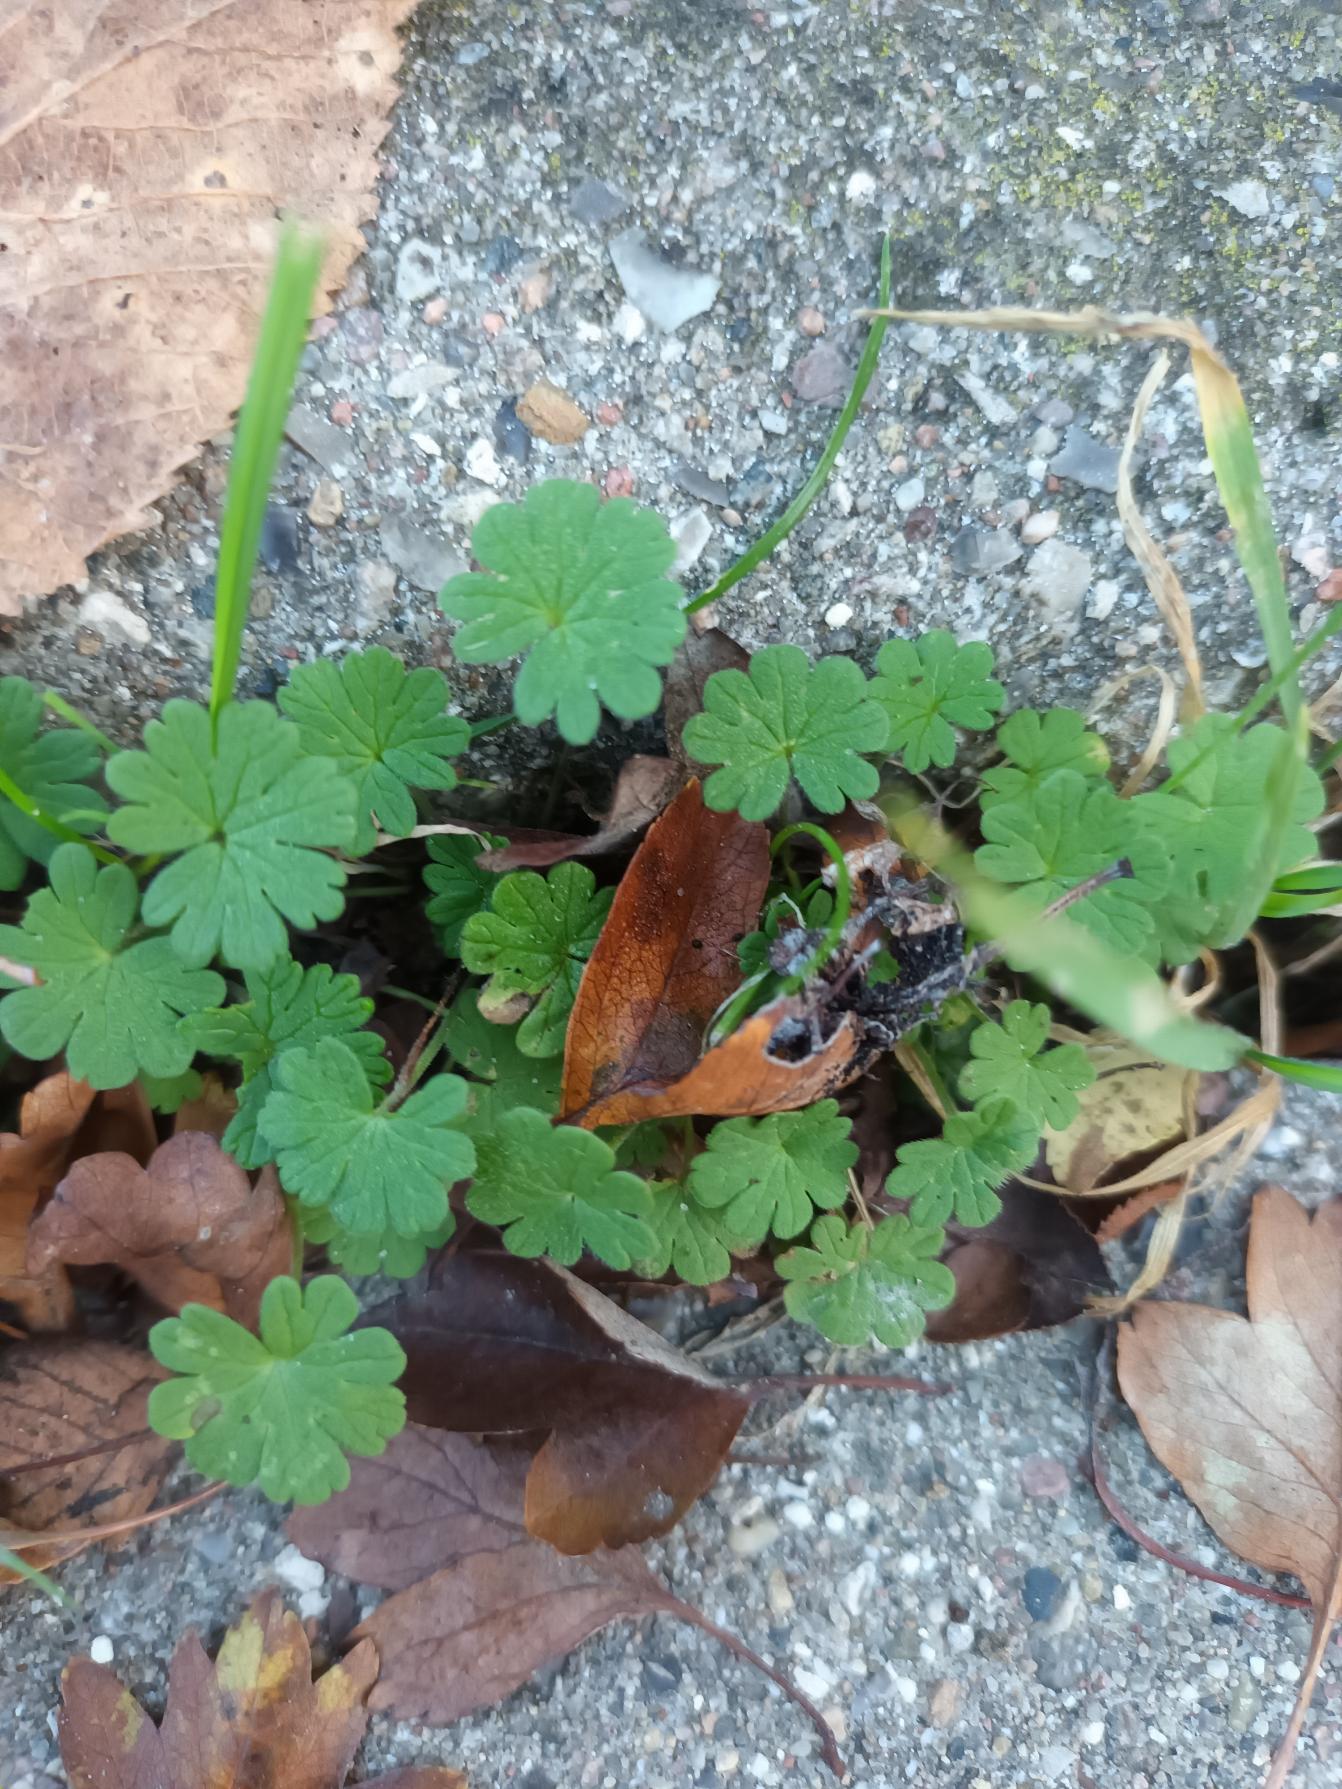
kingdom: Plantae
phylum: Tracheophyta
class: Magnoliopsida
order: Geraniales
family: Geraniaceae
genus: Geranium
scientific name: Geranium pusillum
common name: Liden storkenæb
